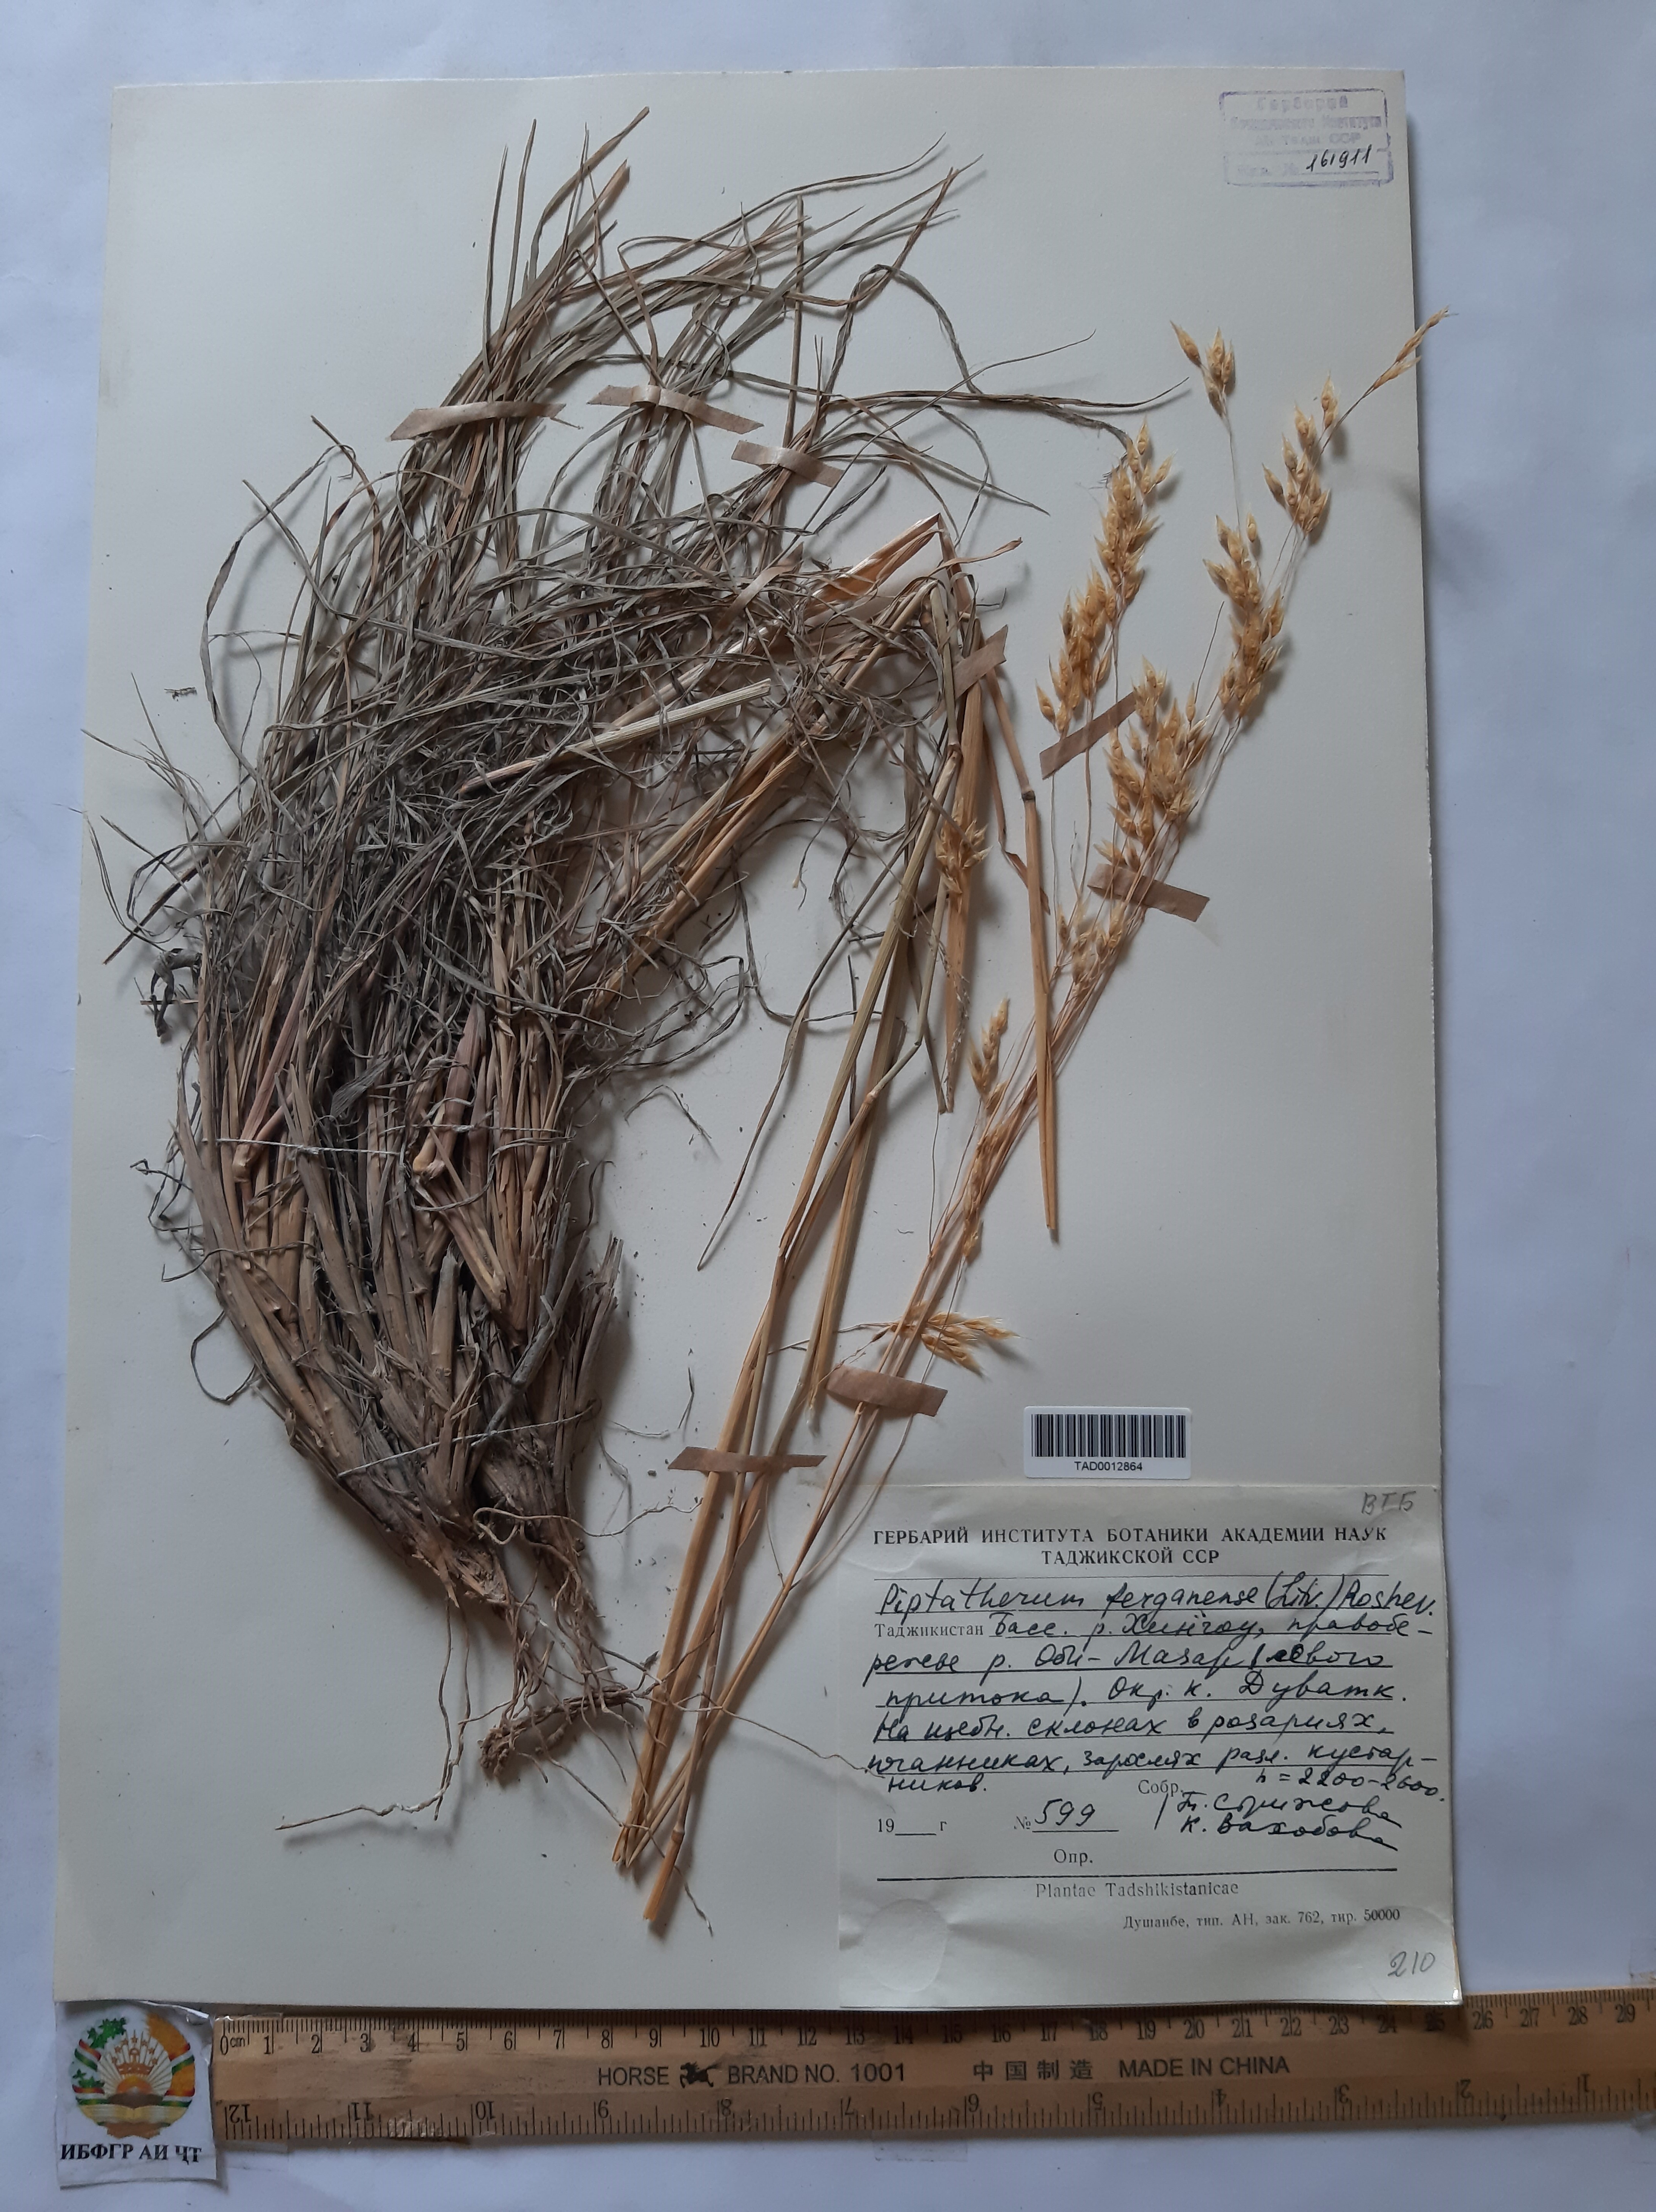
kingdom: Plantae
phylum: Tracheophyta
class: Liliopsida
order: Poales
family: Poaceae
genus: Piptatherum
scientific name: Piptatherum ferganense
